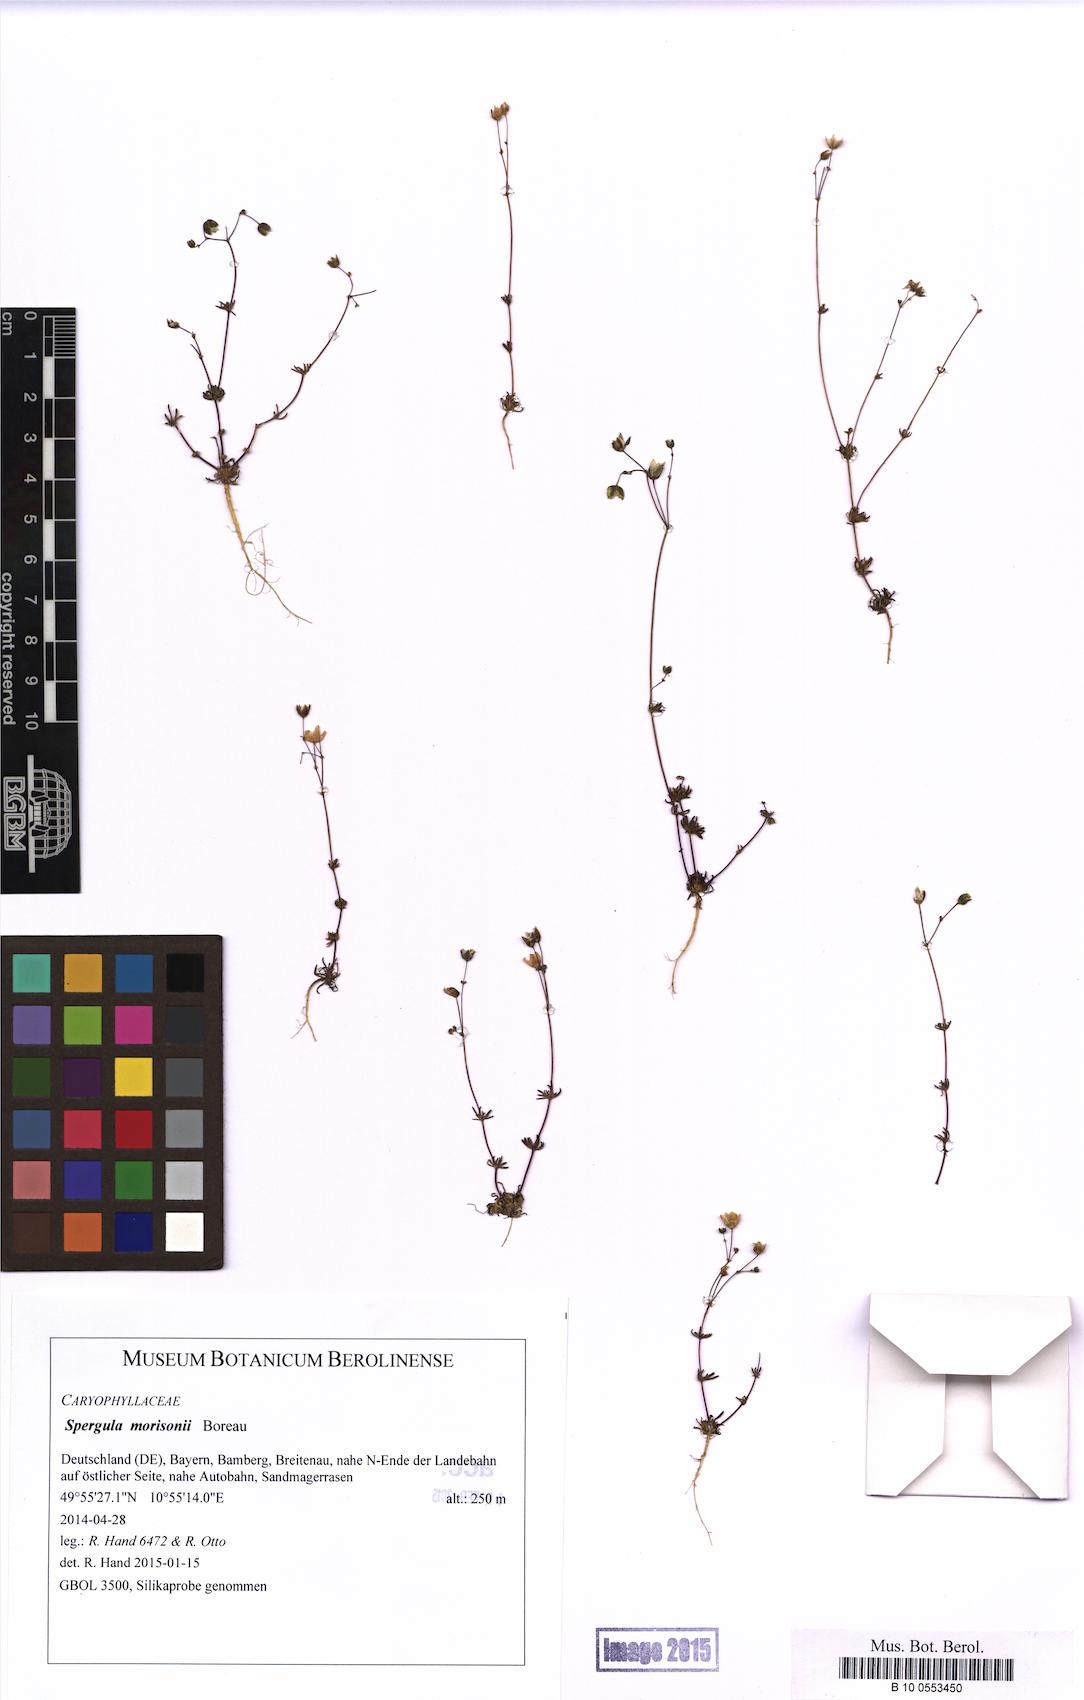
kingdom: Plantae
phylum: Tracheophyta
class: Magnoliopsida
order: Caryophyllales
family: Caryophyllaceae
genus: Spergula
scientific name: Spergula morisonii
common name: Pearlwort spurrey
